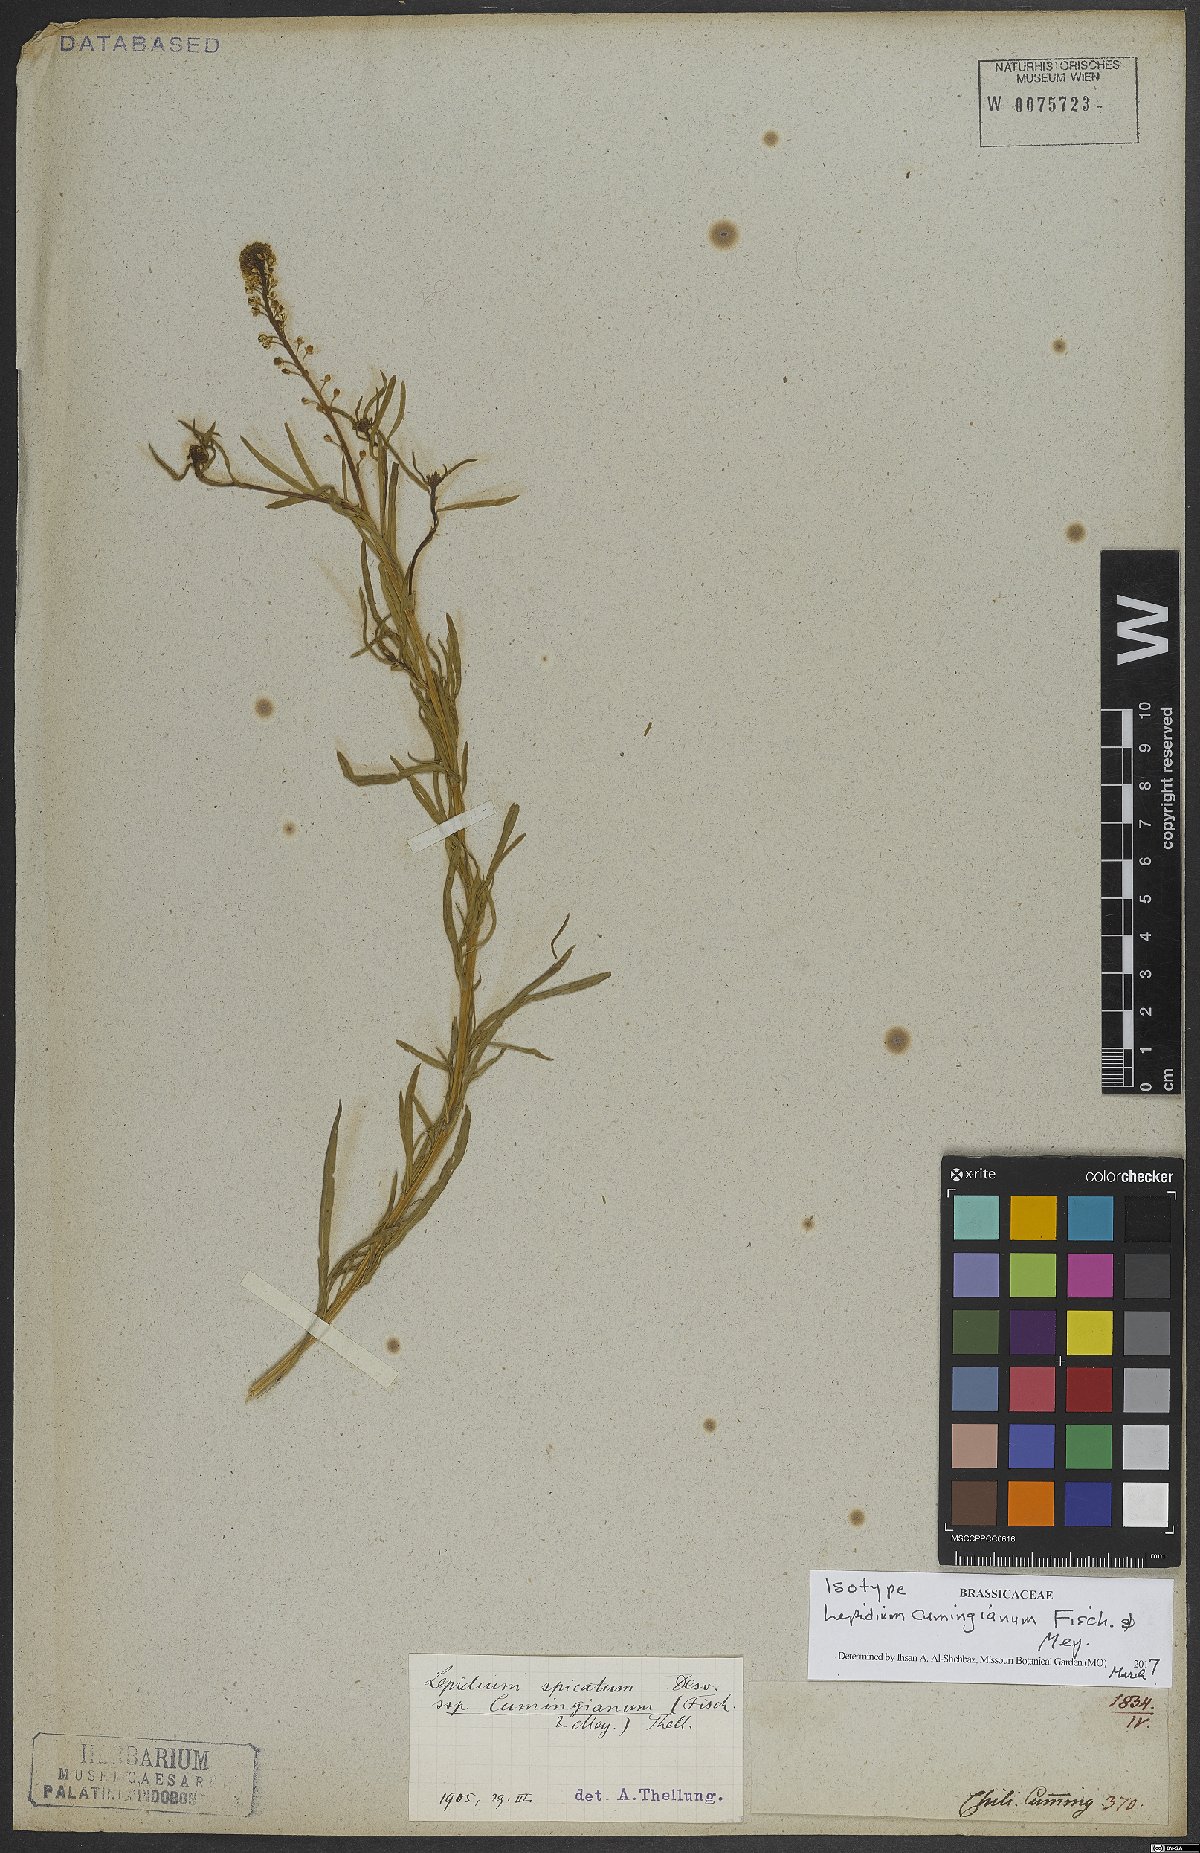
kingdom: Plantae
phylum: Tracheophyta
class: Magnoliopsida
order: Brassicales
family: Brassicaceae
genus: Lepidium
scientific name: Lepidium cumingianum
